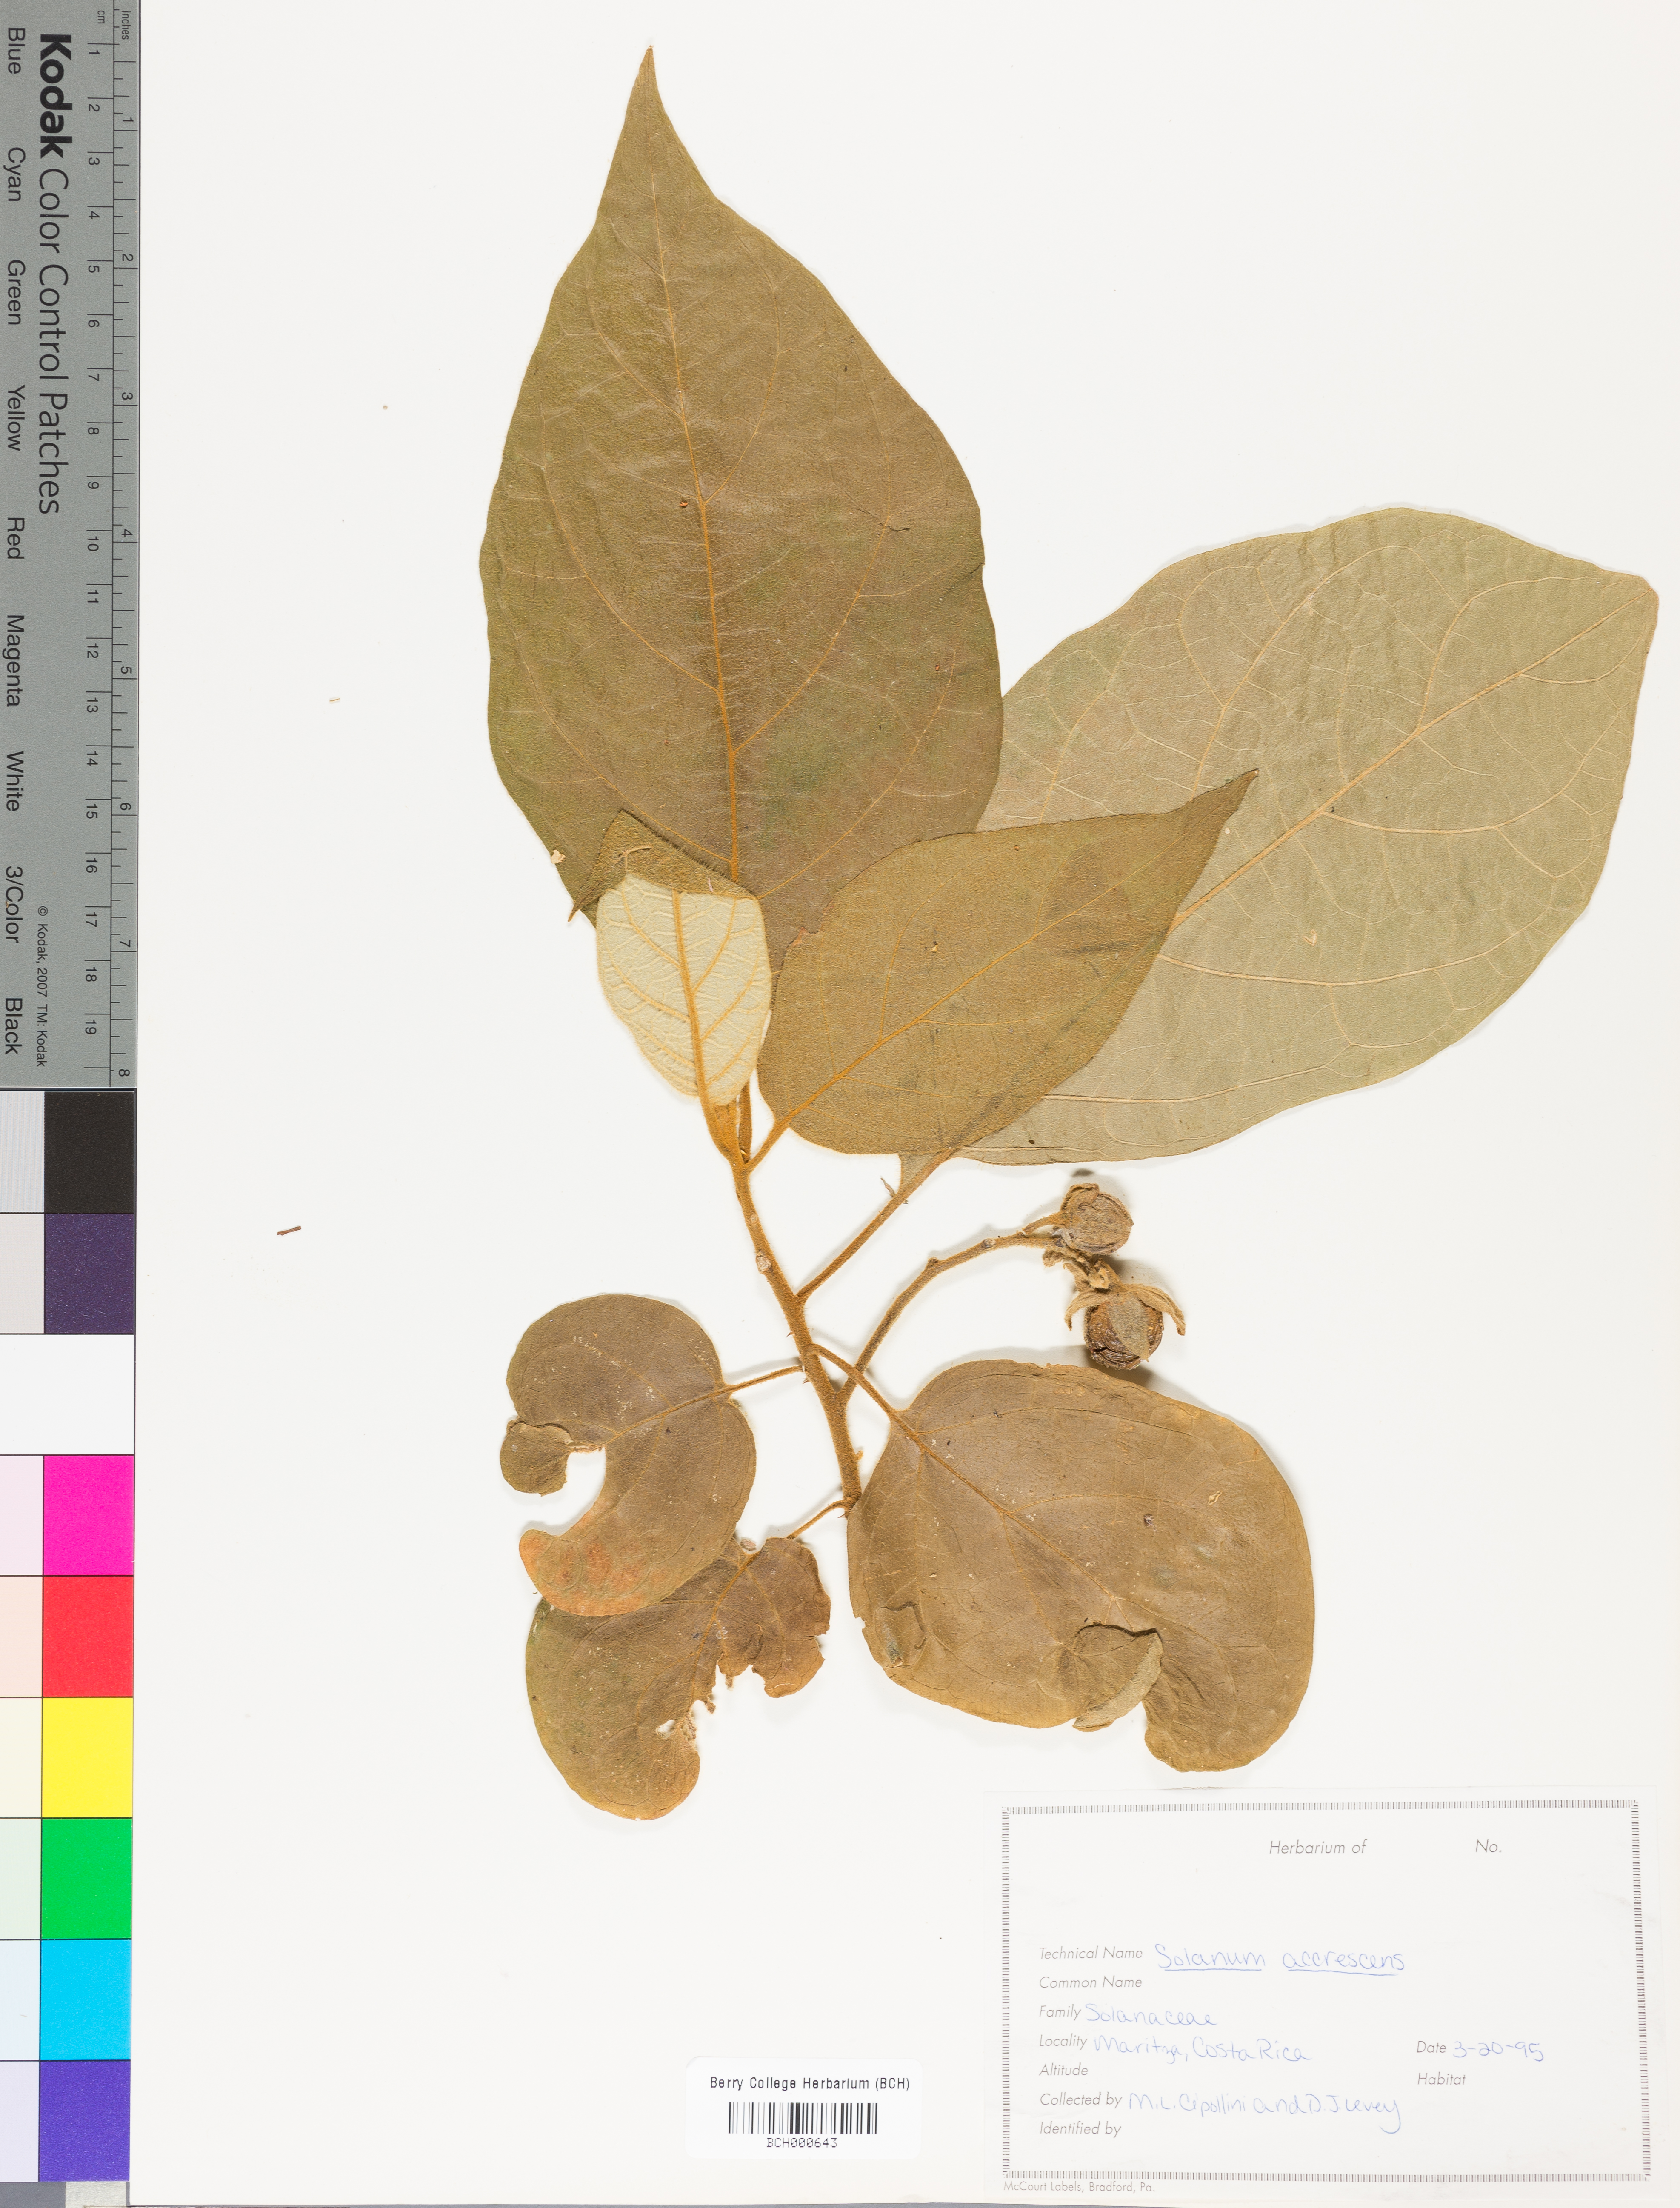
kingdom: Plantae
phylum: Tracheophyta
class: Magnoliopsida
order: Solanales
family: Solanaceae
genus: Solanum
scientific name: Solanum accrescens
